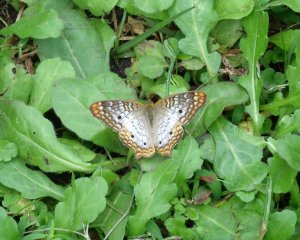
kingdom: Animalia
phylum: Arthropoda
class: Insecta
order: Lepidoptera
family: Nymphalidae
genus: Anartia
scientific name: Anartia jatrophae
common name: White Peacock
